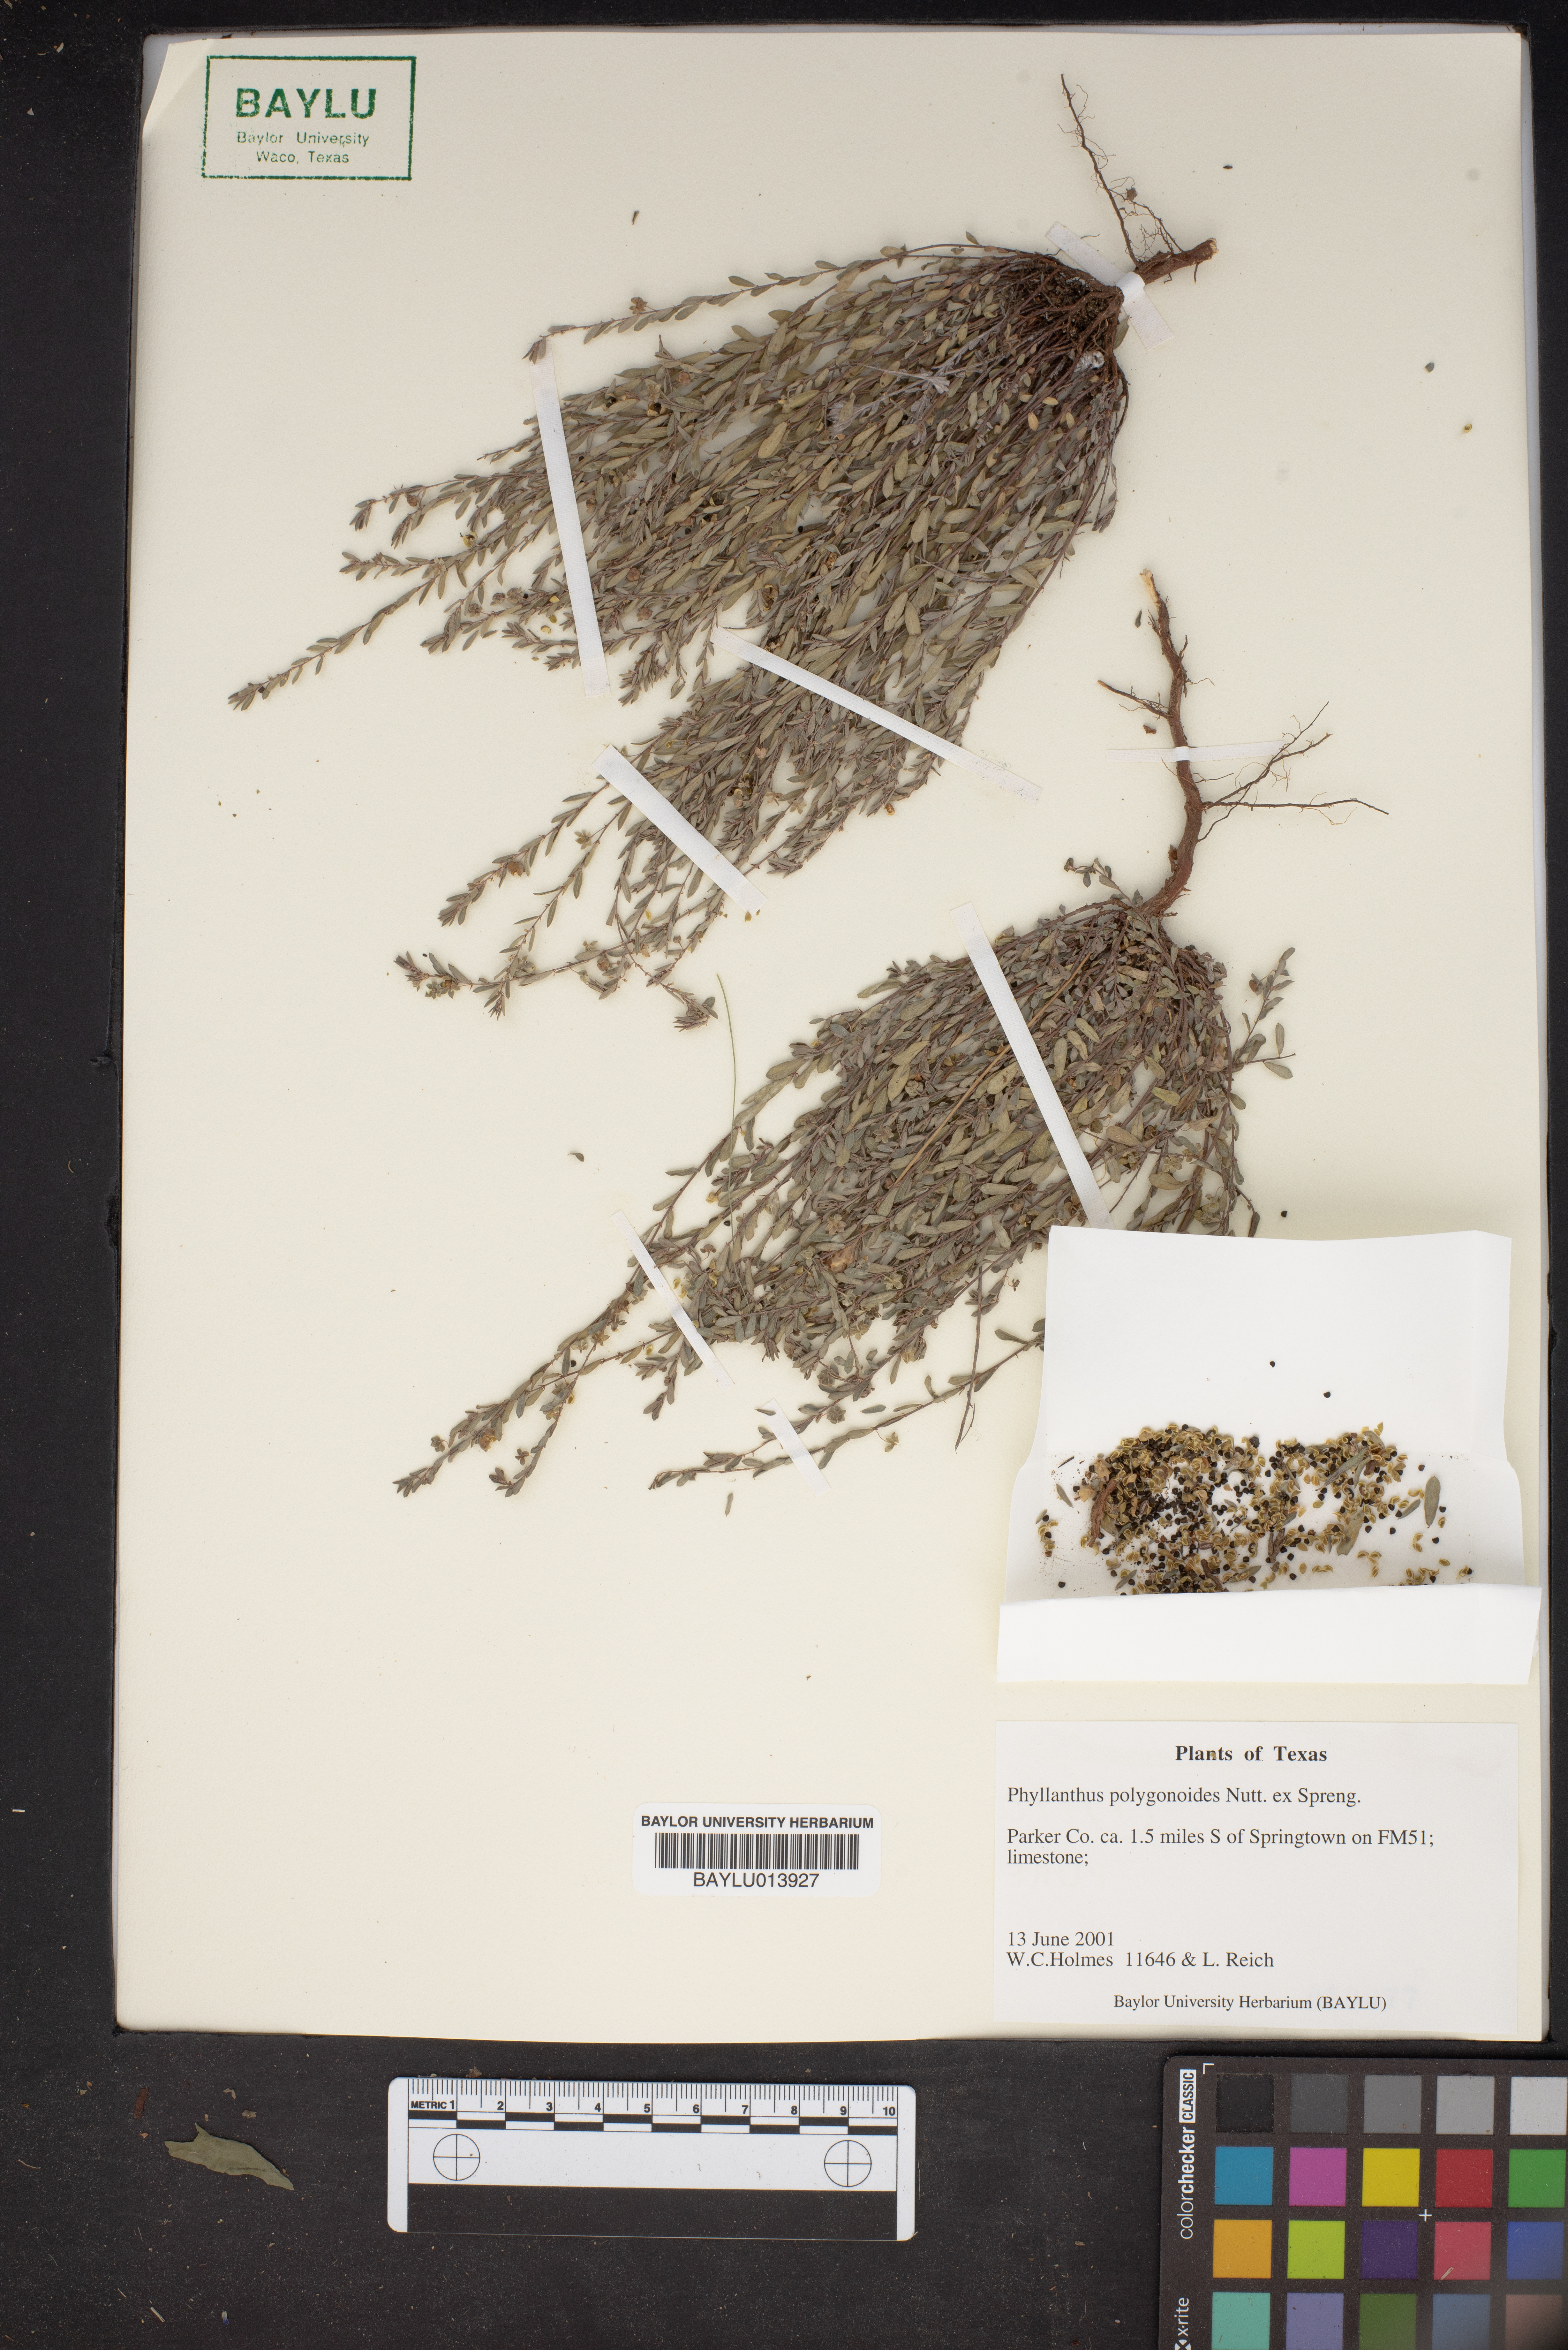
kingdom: Plantae
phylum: Tracheophyta
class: Magnoliopsida
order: Malpighiales
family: Phyllanthaceae
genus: Phyllanthus
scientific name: Phyllanthus polygonoides
